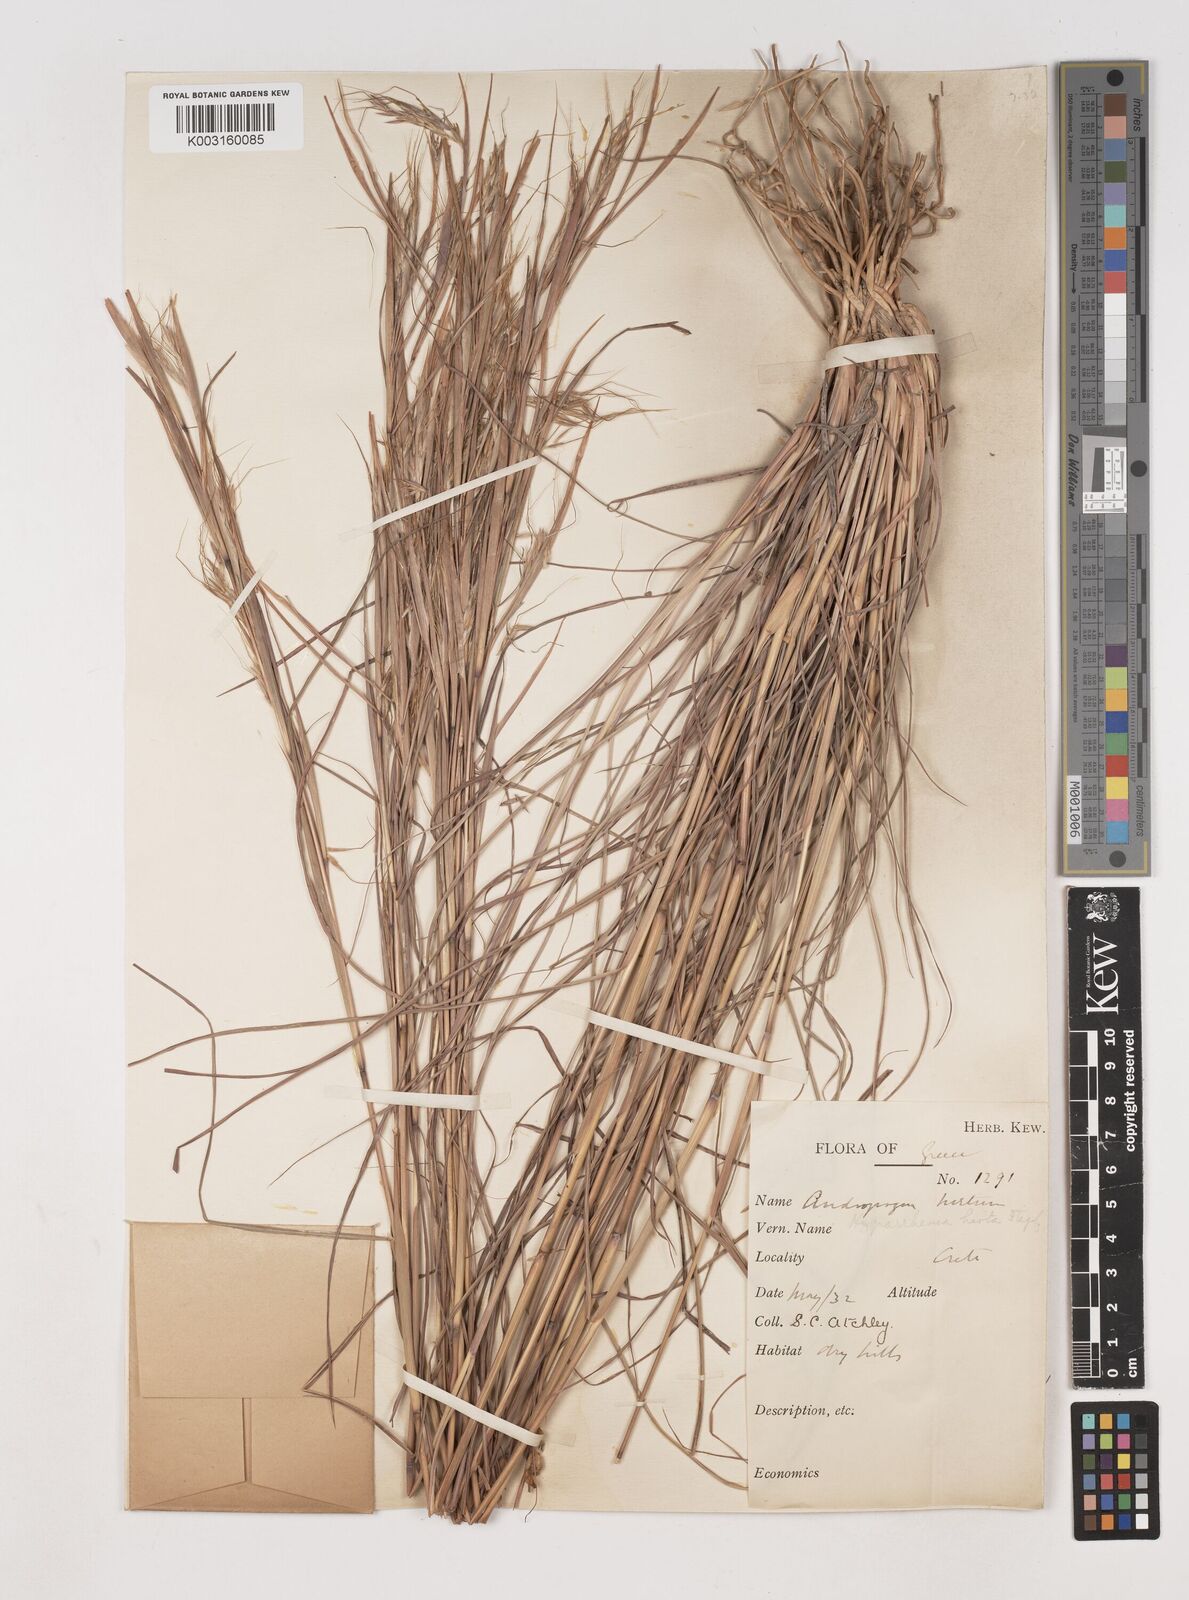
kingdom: Plantae
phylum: Tracheophyta
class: Liliopsida
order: Poales
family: Poaceae
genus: Hyparrhenia
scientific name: Hyparrhenia hirta
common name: Thatching grass
